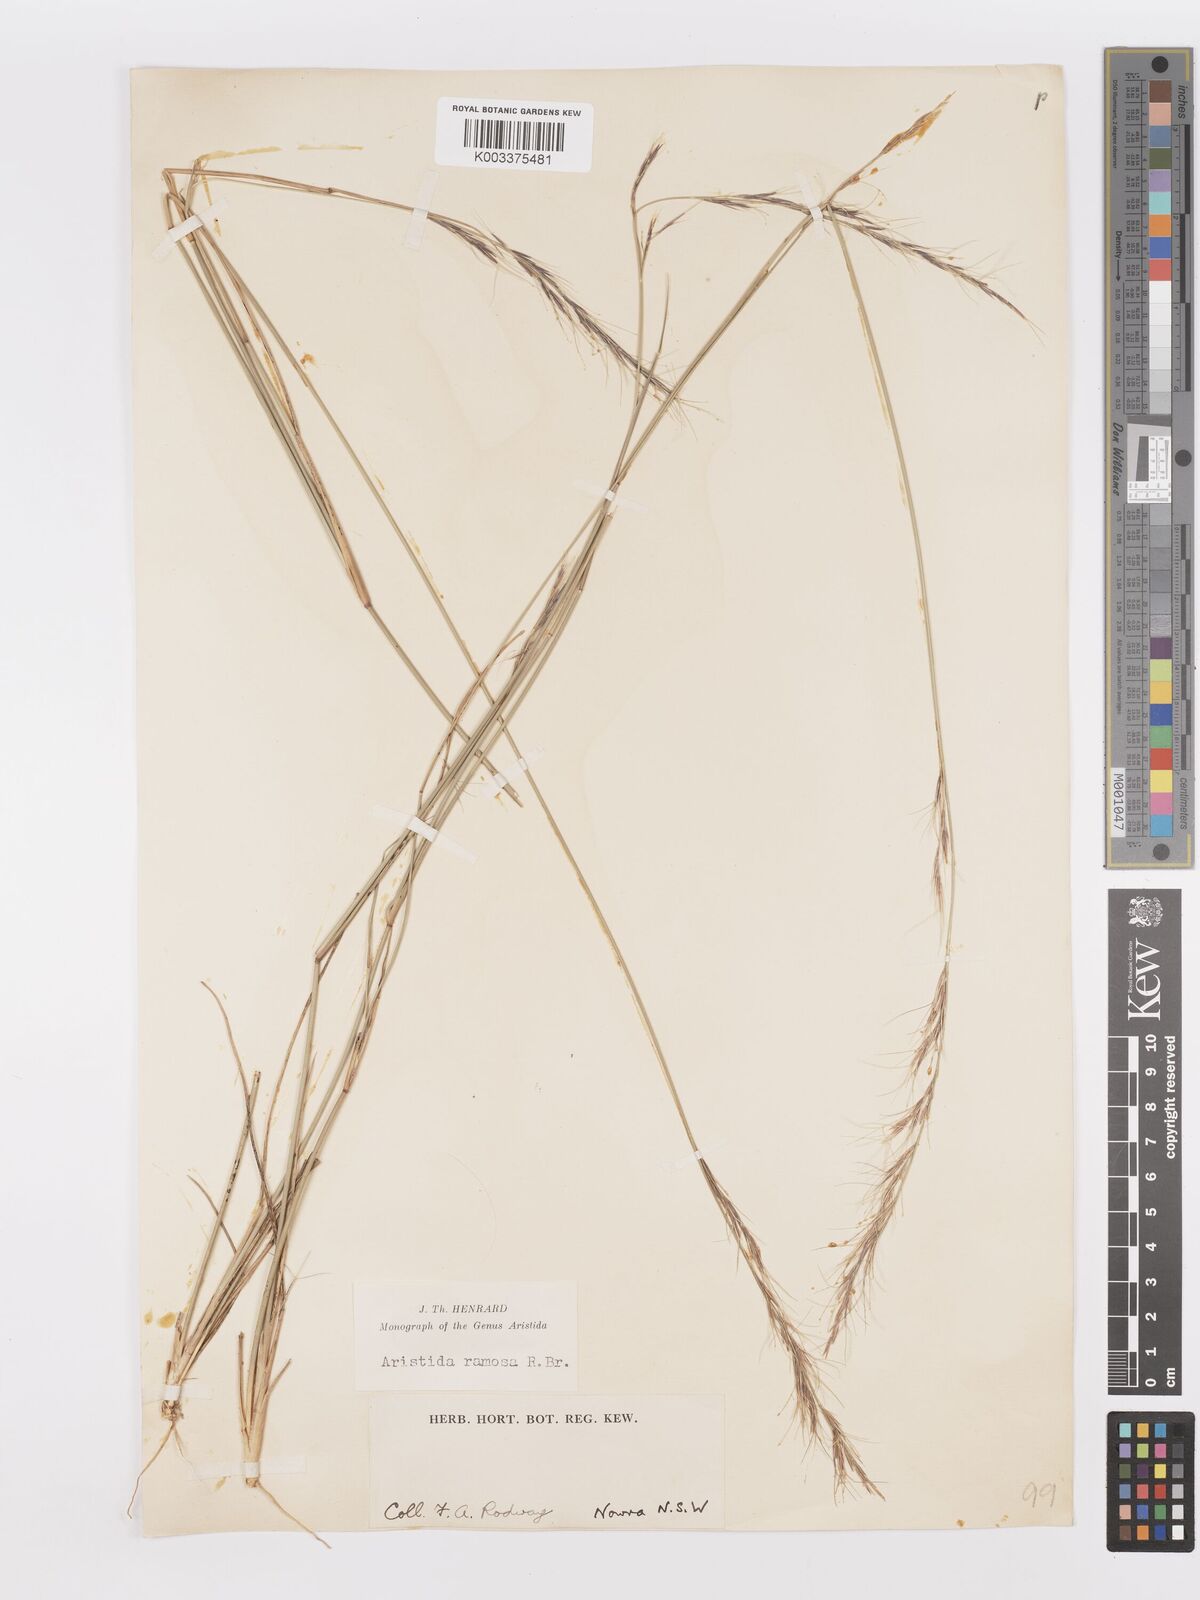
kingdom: Plantae
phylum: Tracheophyta
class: Liliopsida
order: Poales
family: Poaceae
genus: Aristida
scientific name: Aristida ramosa
